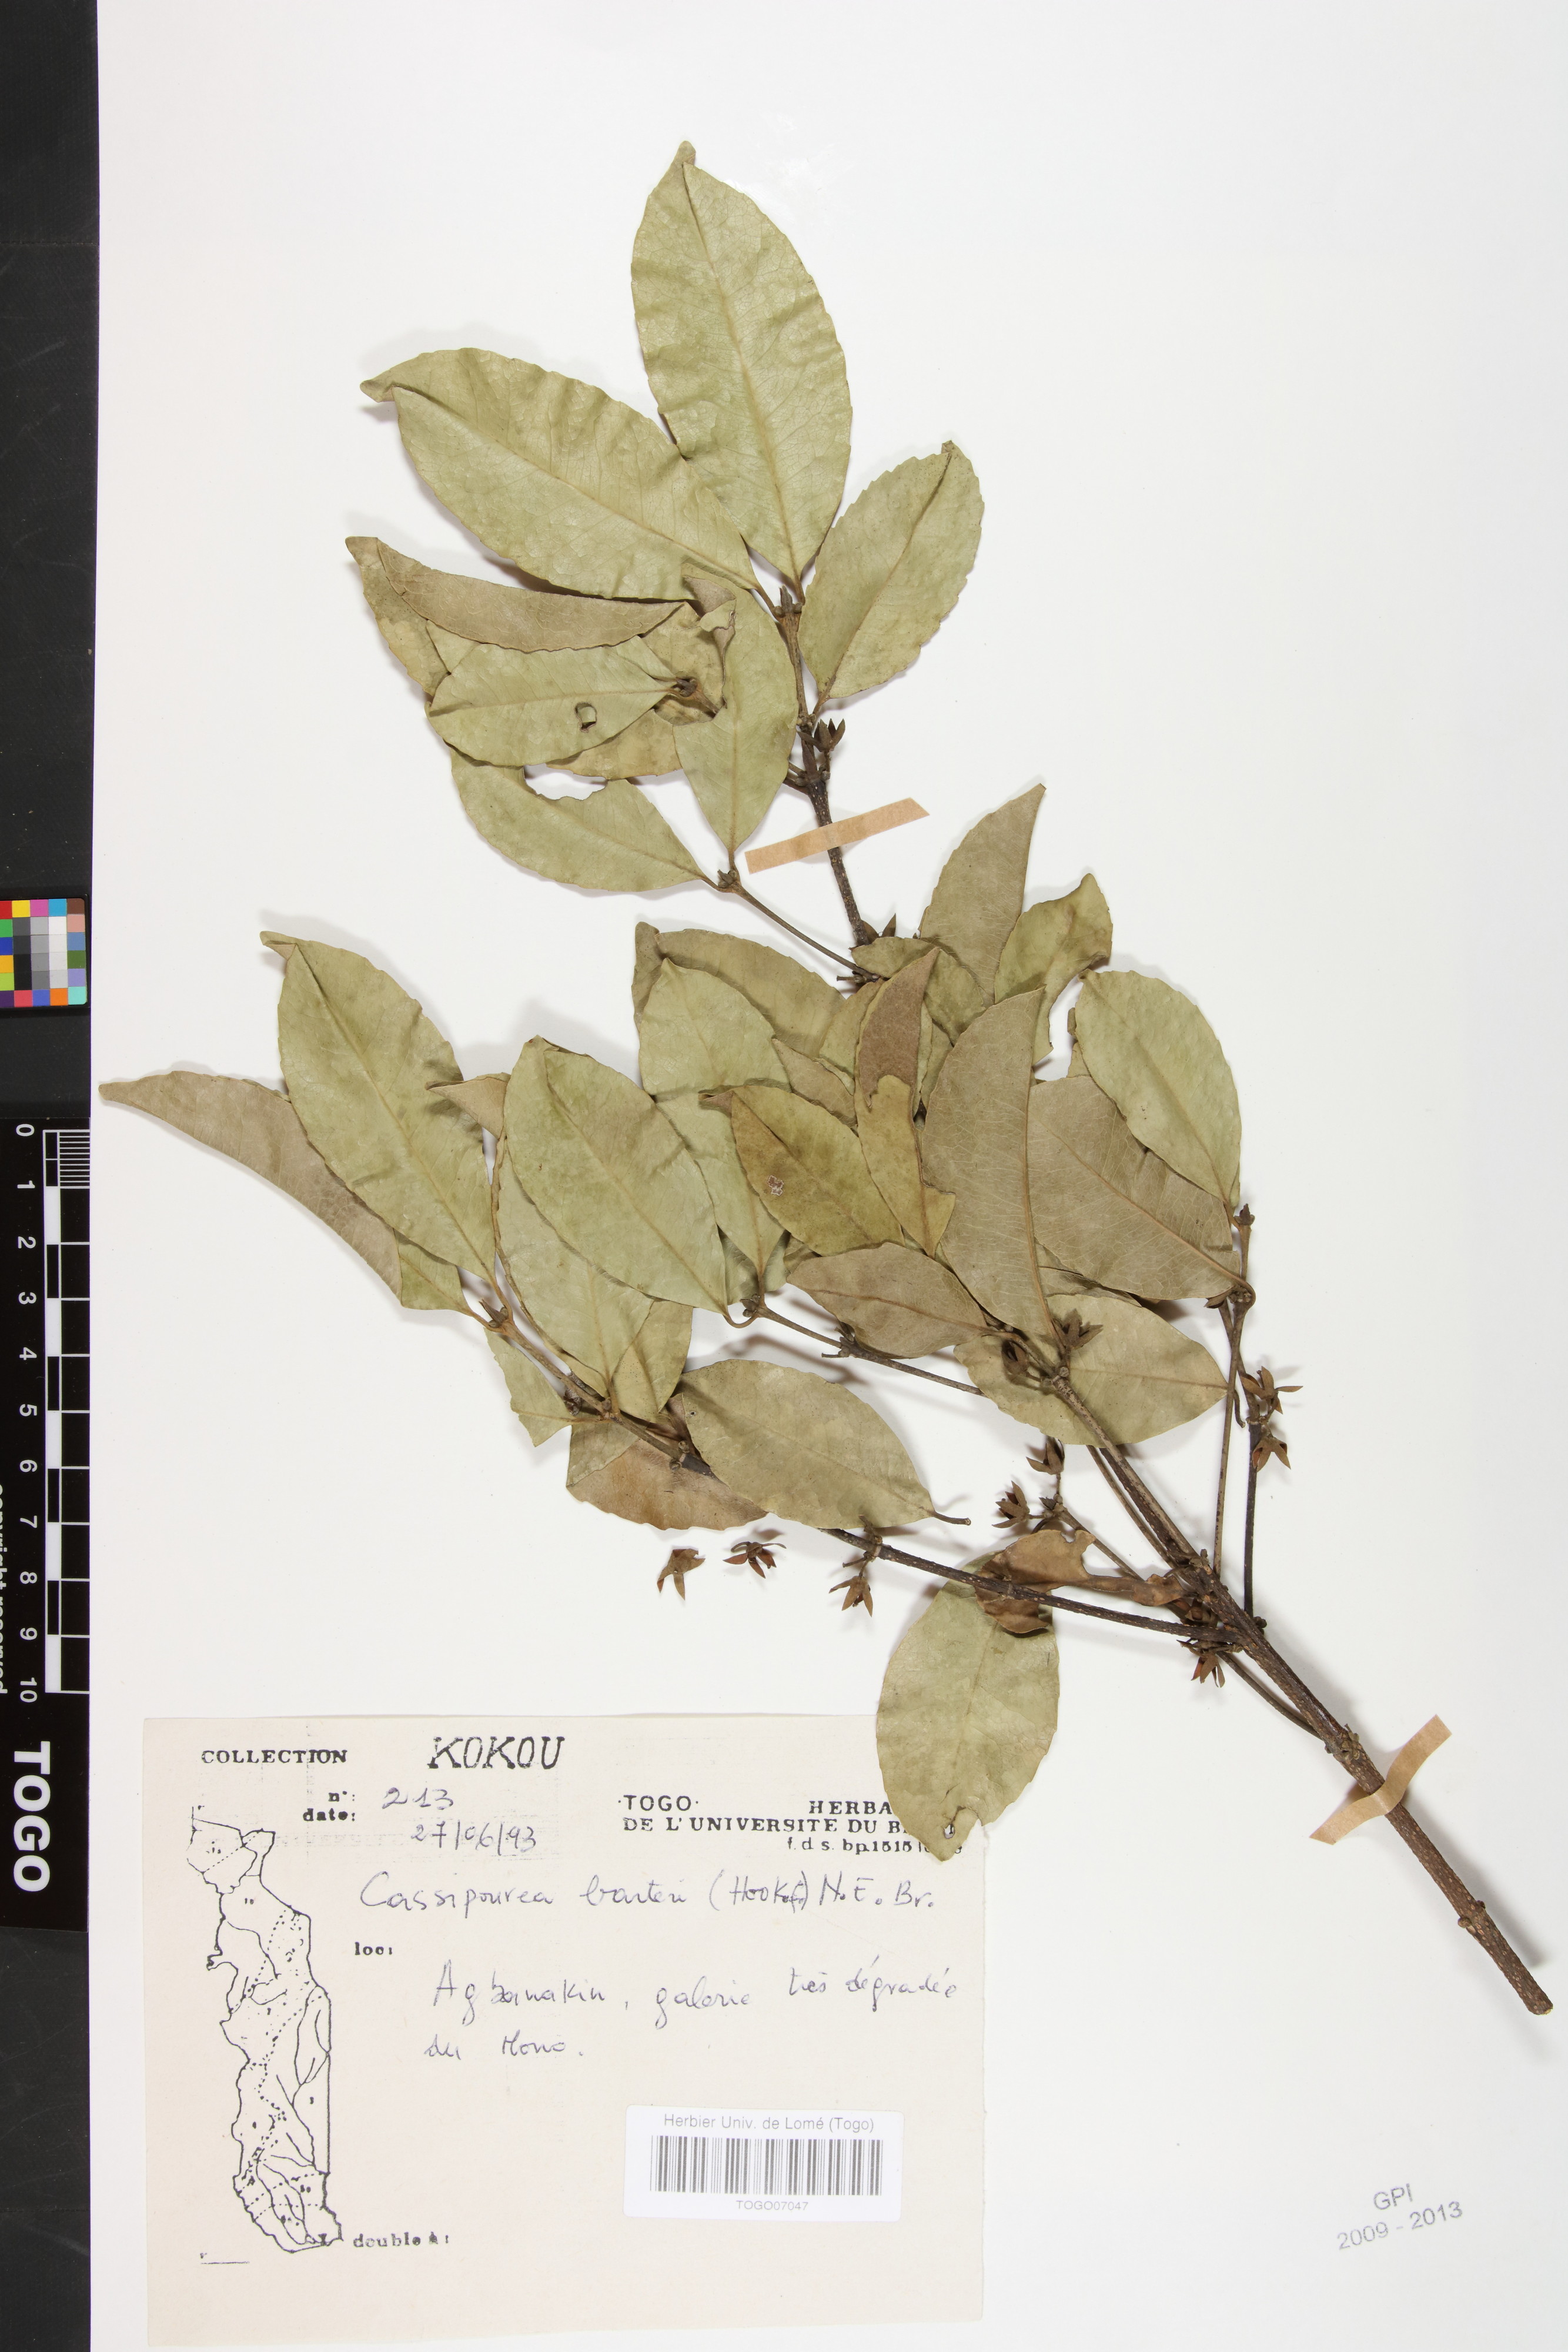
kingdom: Plantae
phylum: Tracheophyta
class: Magnoliopsida
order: Malpighiales
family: Rhizophoraceae
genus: Cassipourea
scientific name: Cassipourea barteri
